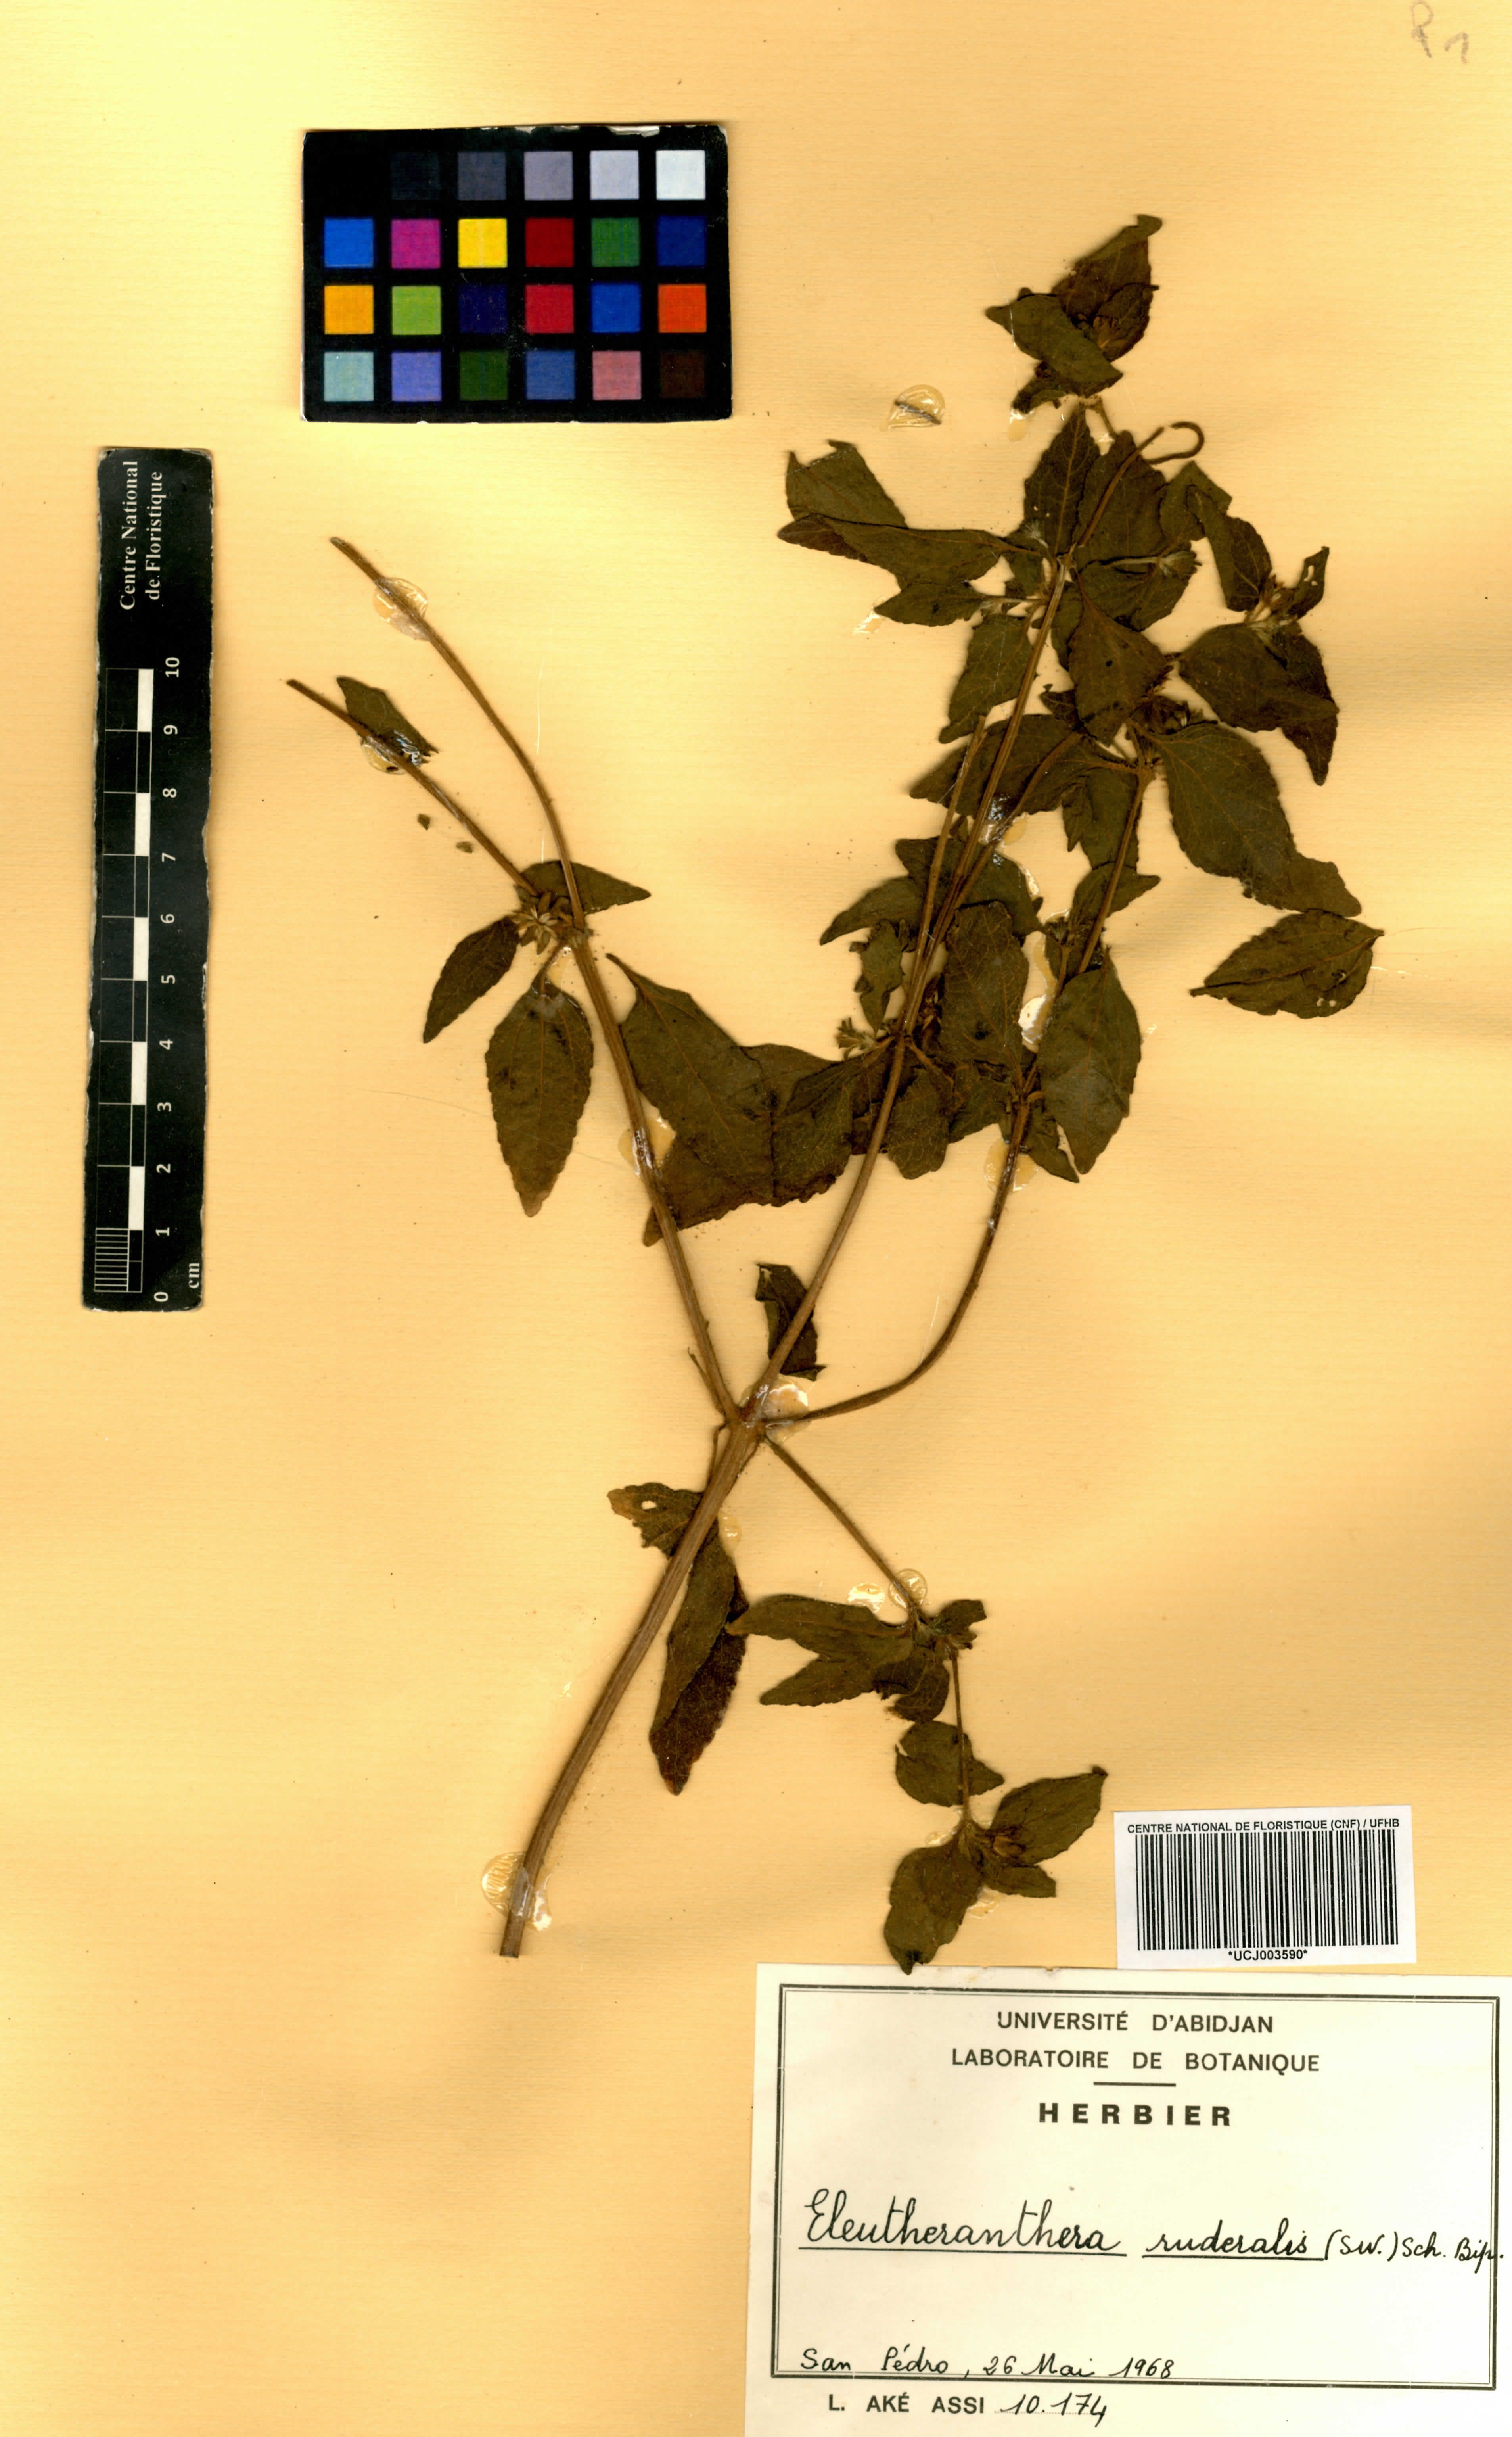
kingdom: Plantae
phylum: Tracheophyta
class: Magnoliopsida
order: Asterales
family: Asteraceae
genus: Eleutheranthera
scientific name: Eleutheranthera ruderalis
